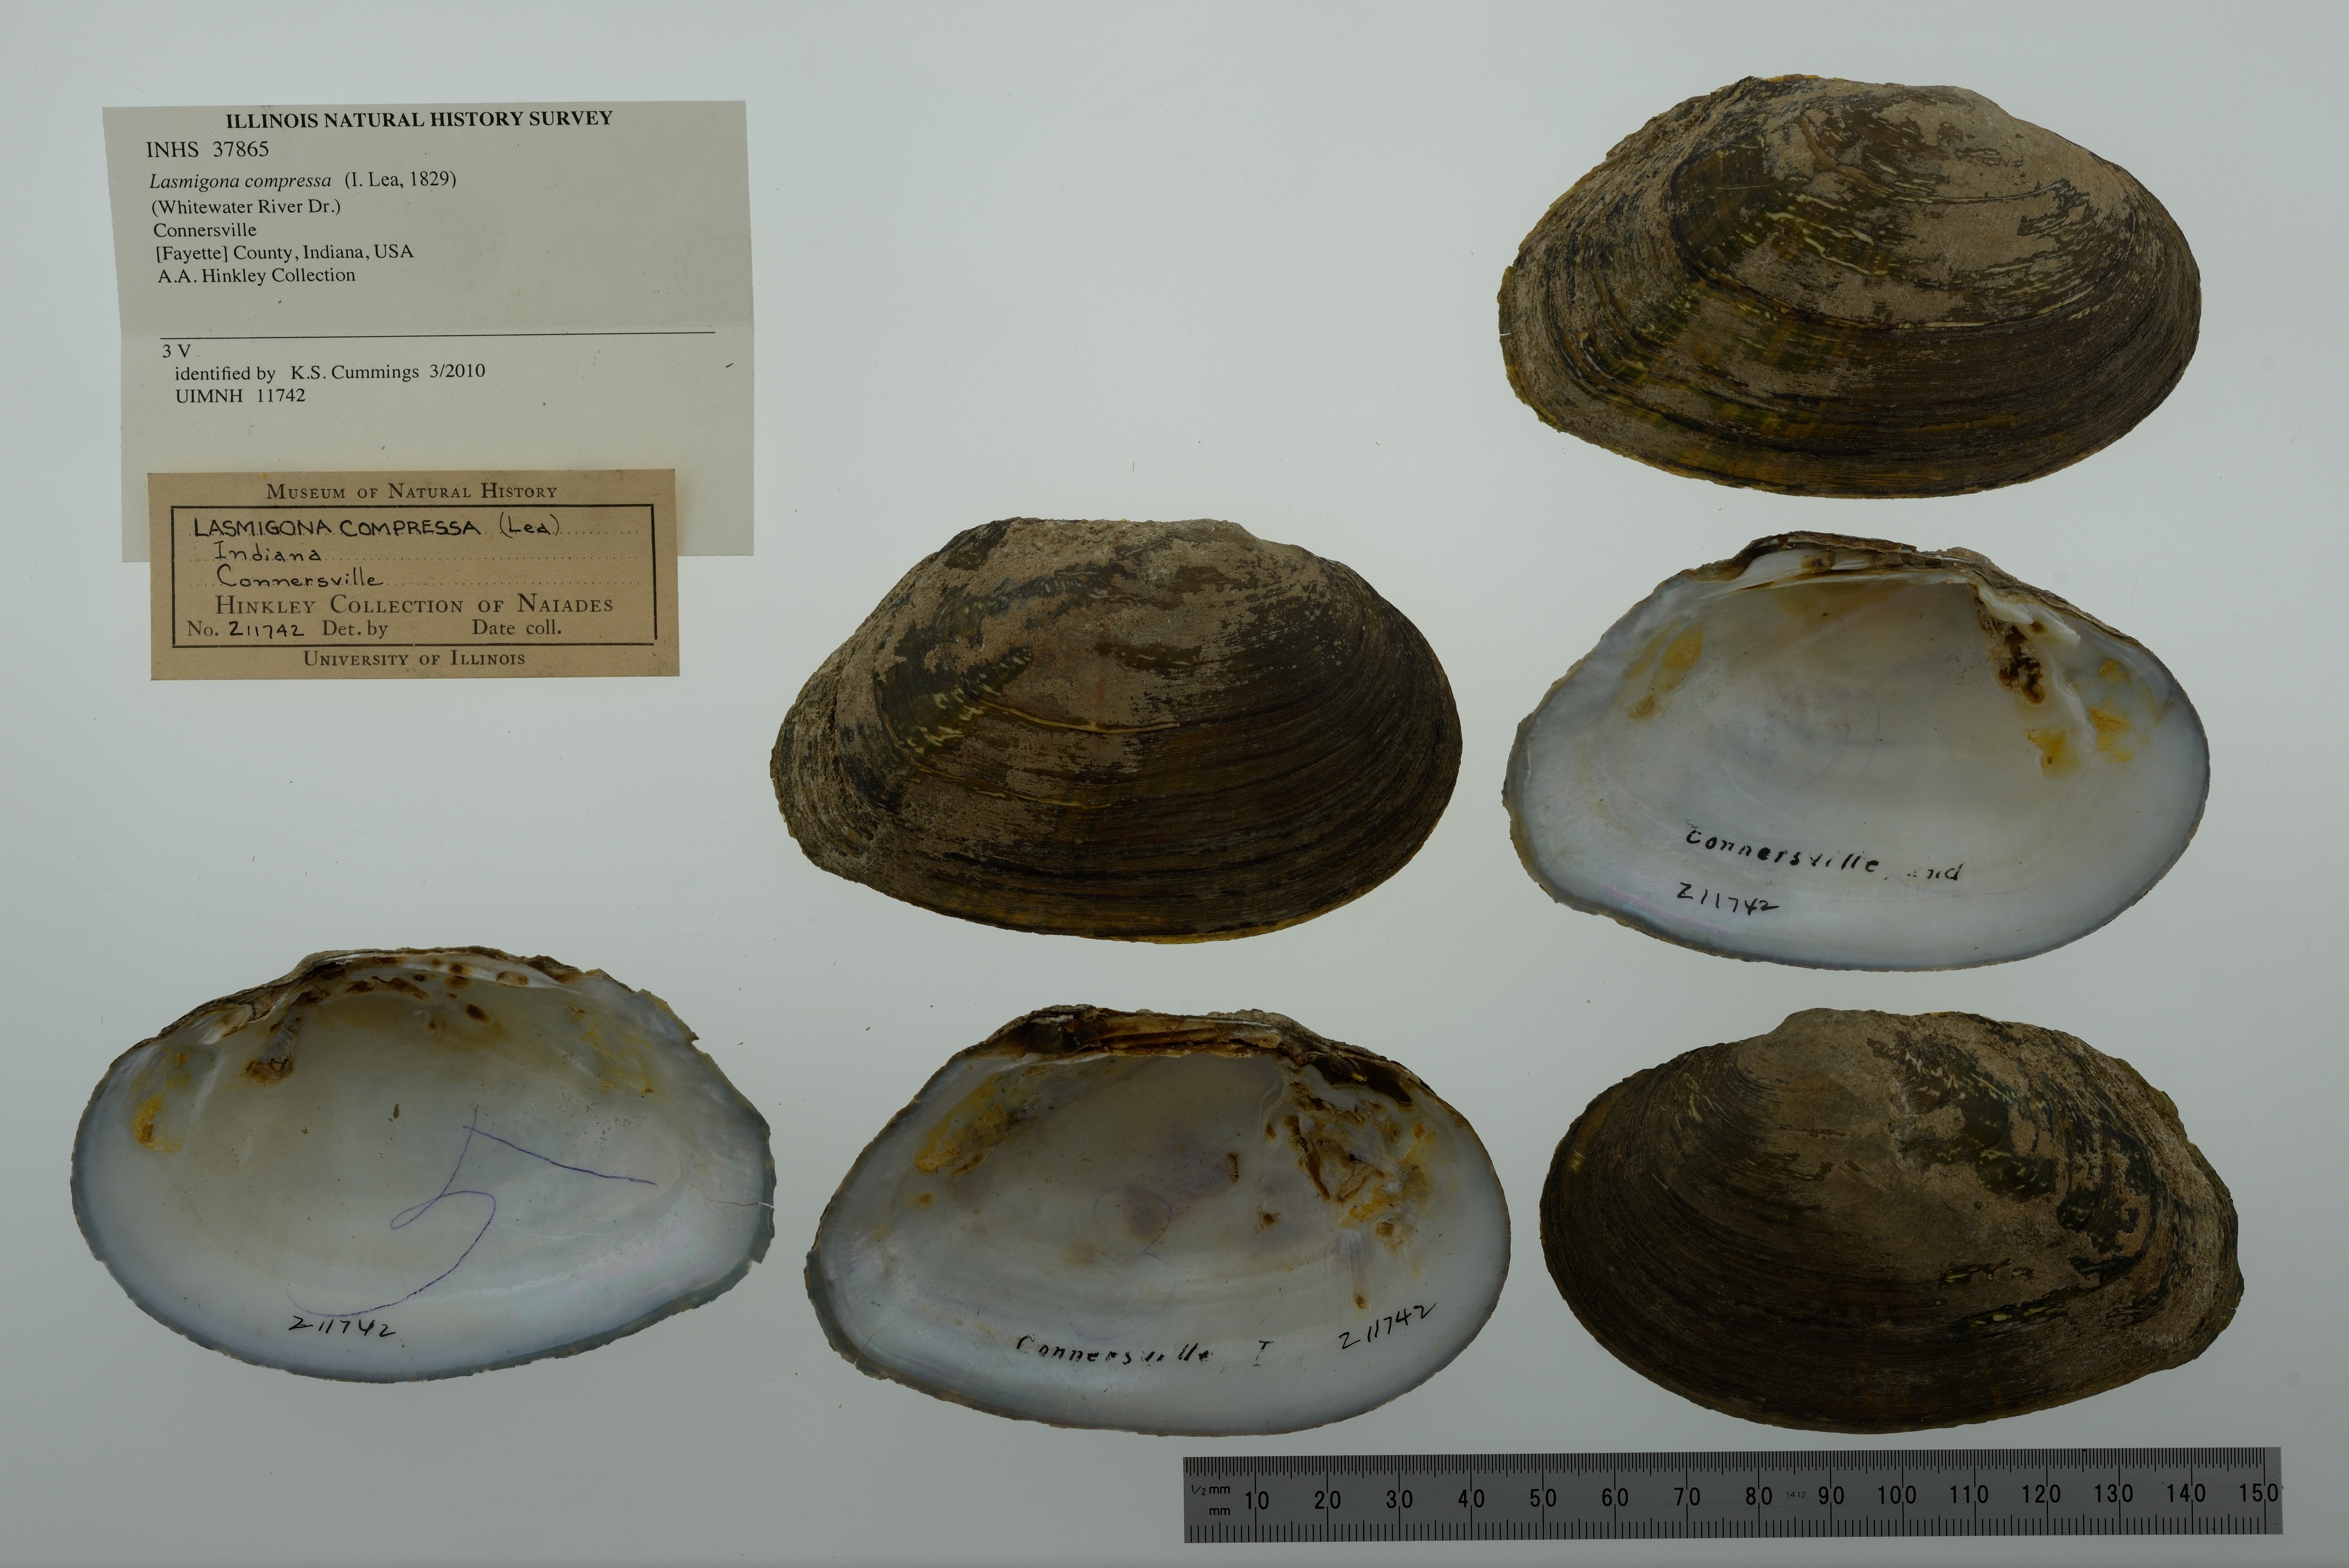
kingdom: Animalia
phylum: Mollusca
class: Bivalvia
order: Unionida
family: Unionidae
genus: Lasmigona
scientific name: Lasmigona compressa
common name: Creek heelsplitter
